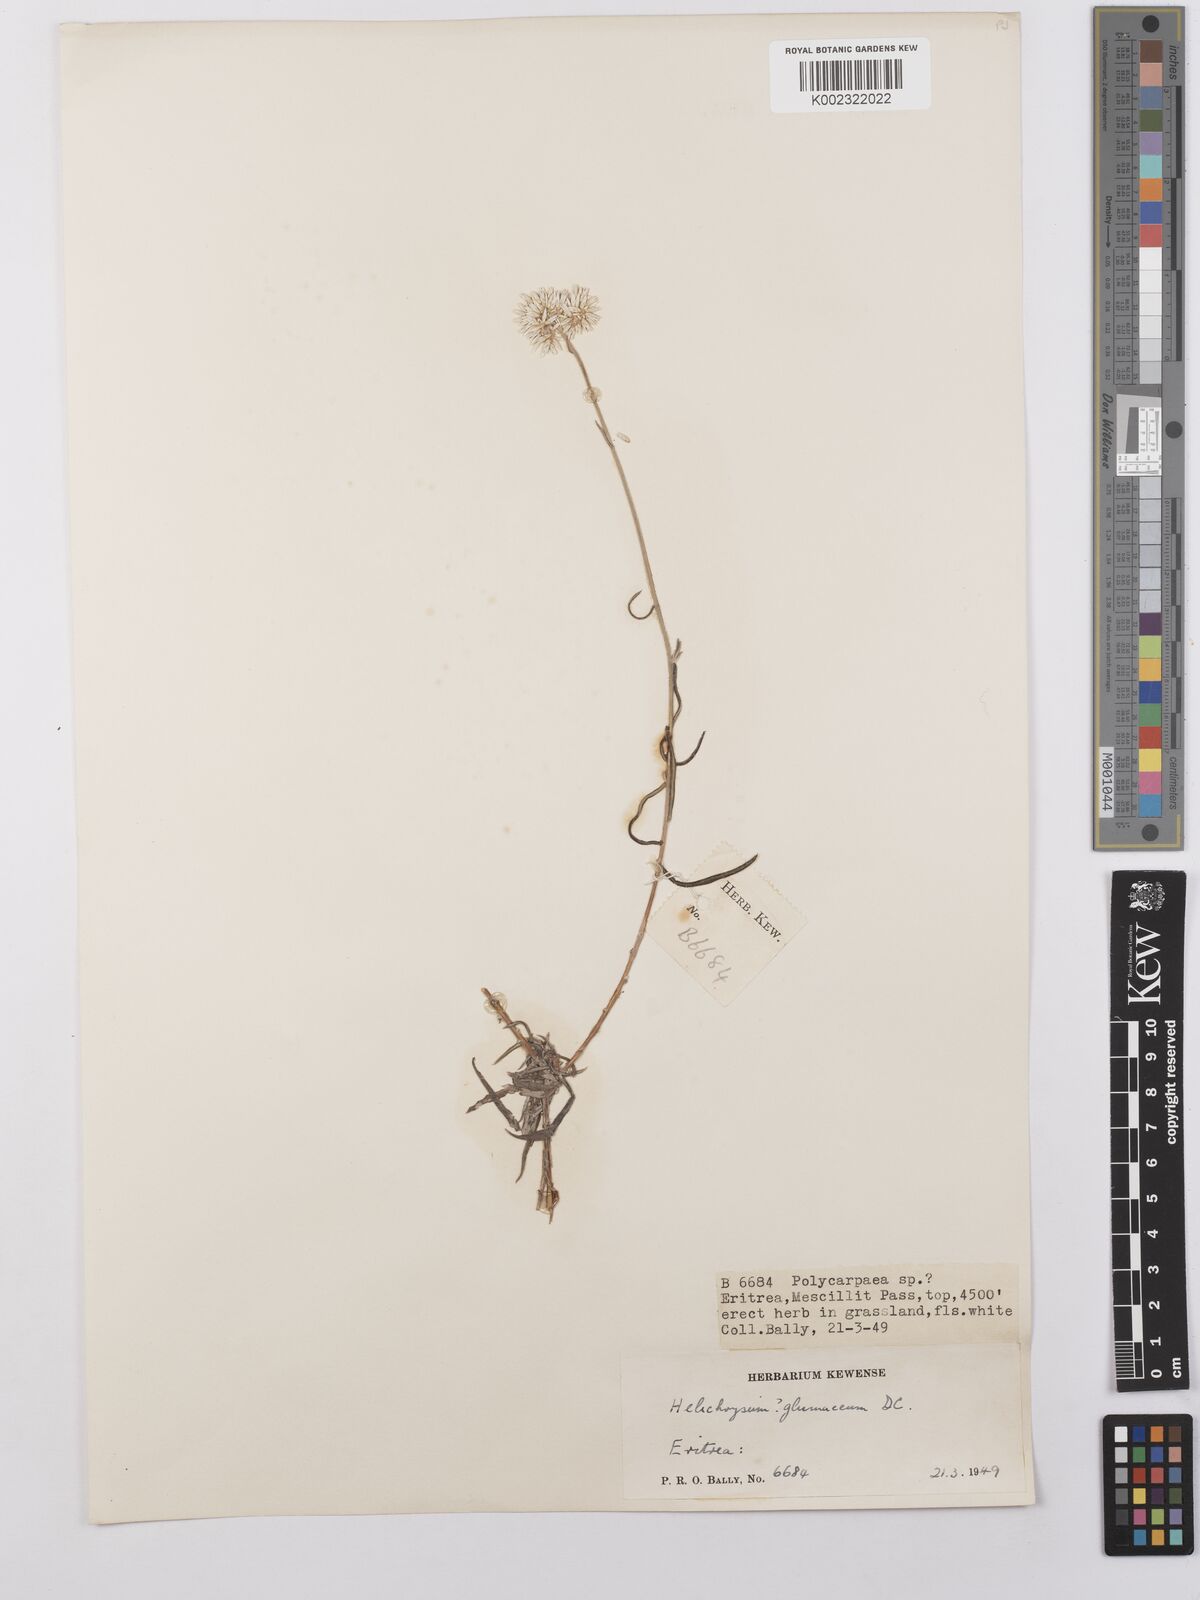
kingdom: Plantae
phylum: Tracheophyta
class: Magnoliopsida
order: Asterales
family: Asteraceae
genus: Helichrysum
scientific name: Helichrysum glumaceum
